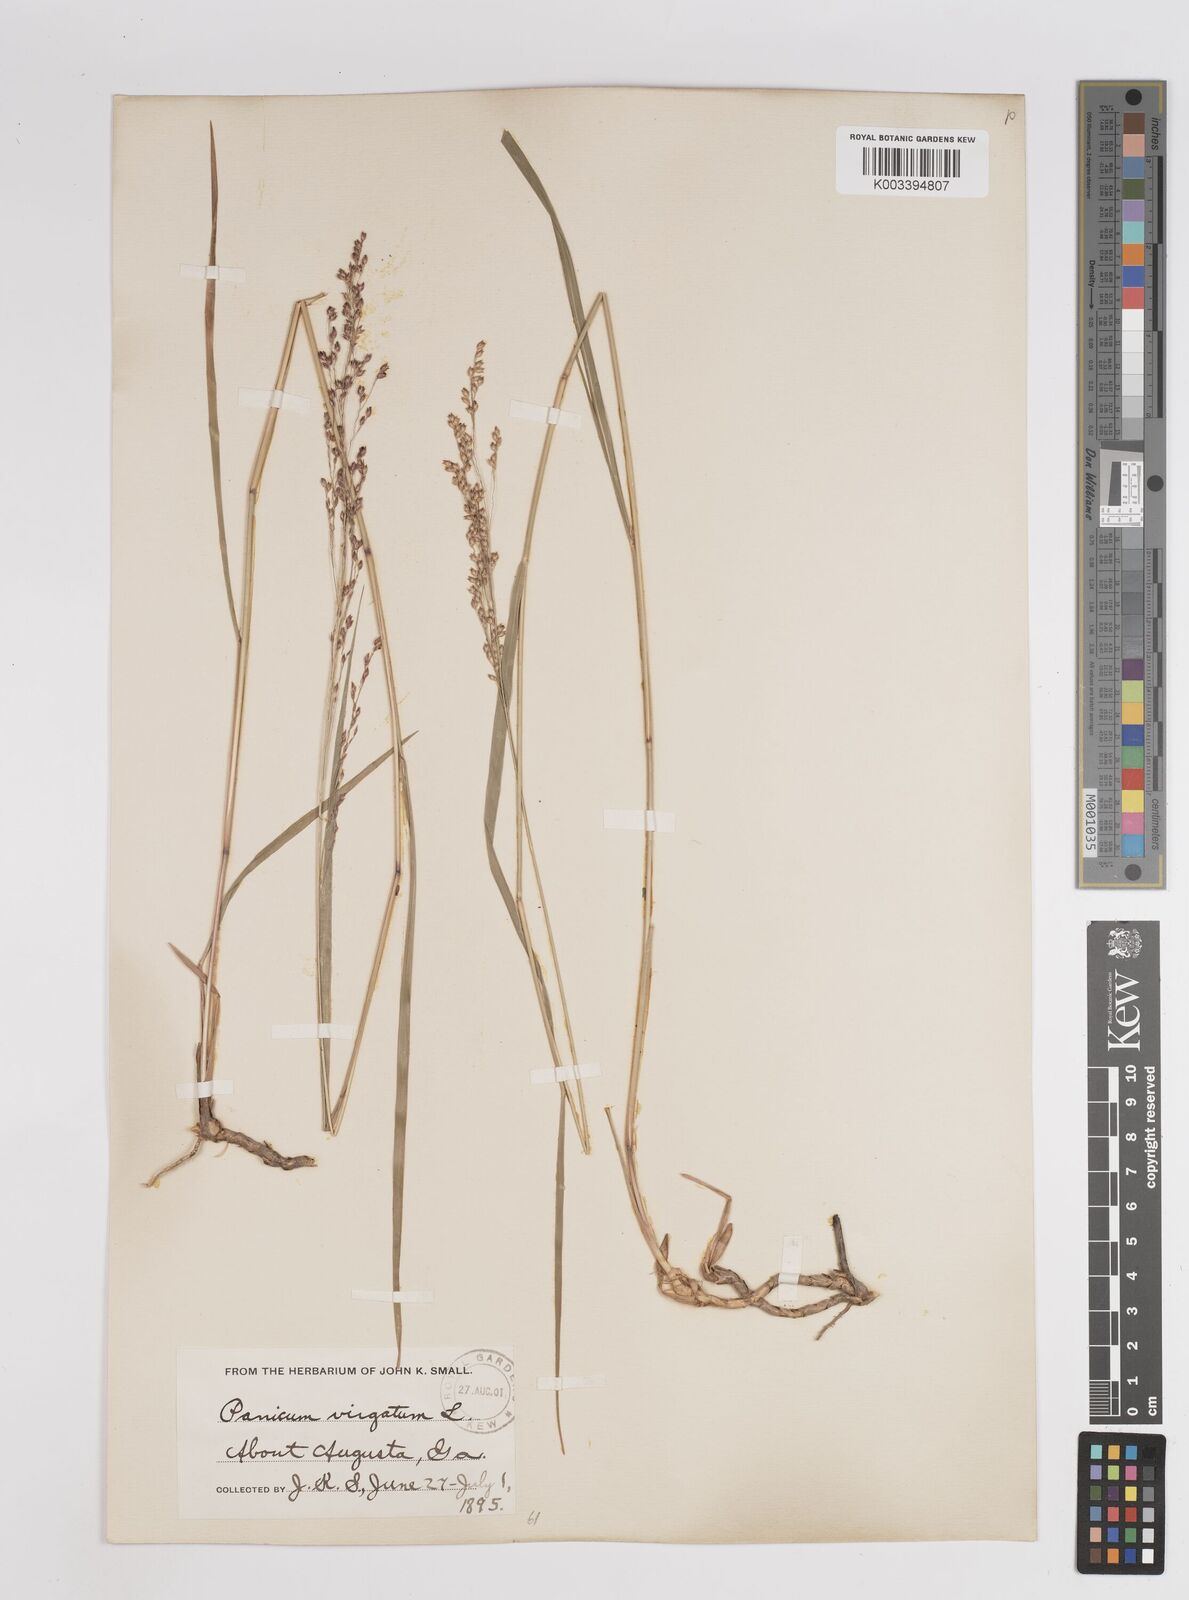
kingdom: Plantae
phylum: Tracheophyta
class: Liliopsida
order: Poales
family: Poaceae
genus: Panicum
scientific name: Panicum virgatum
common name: Switchgrass
